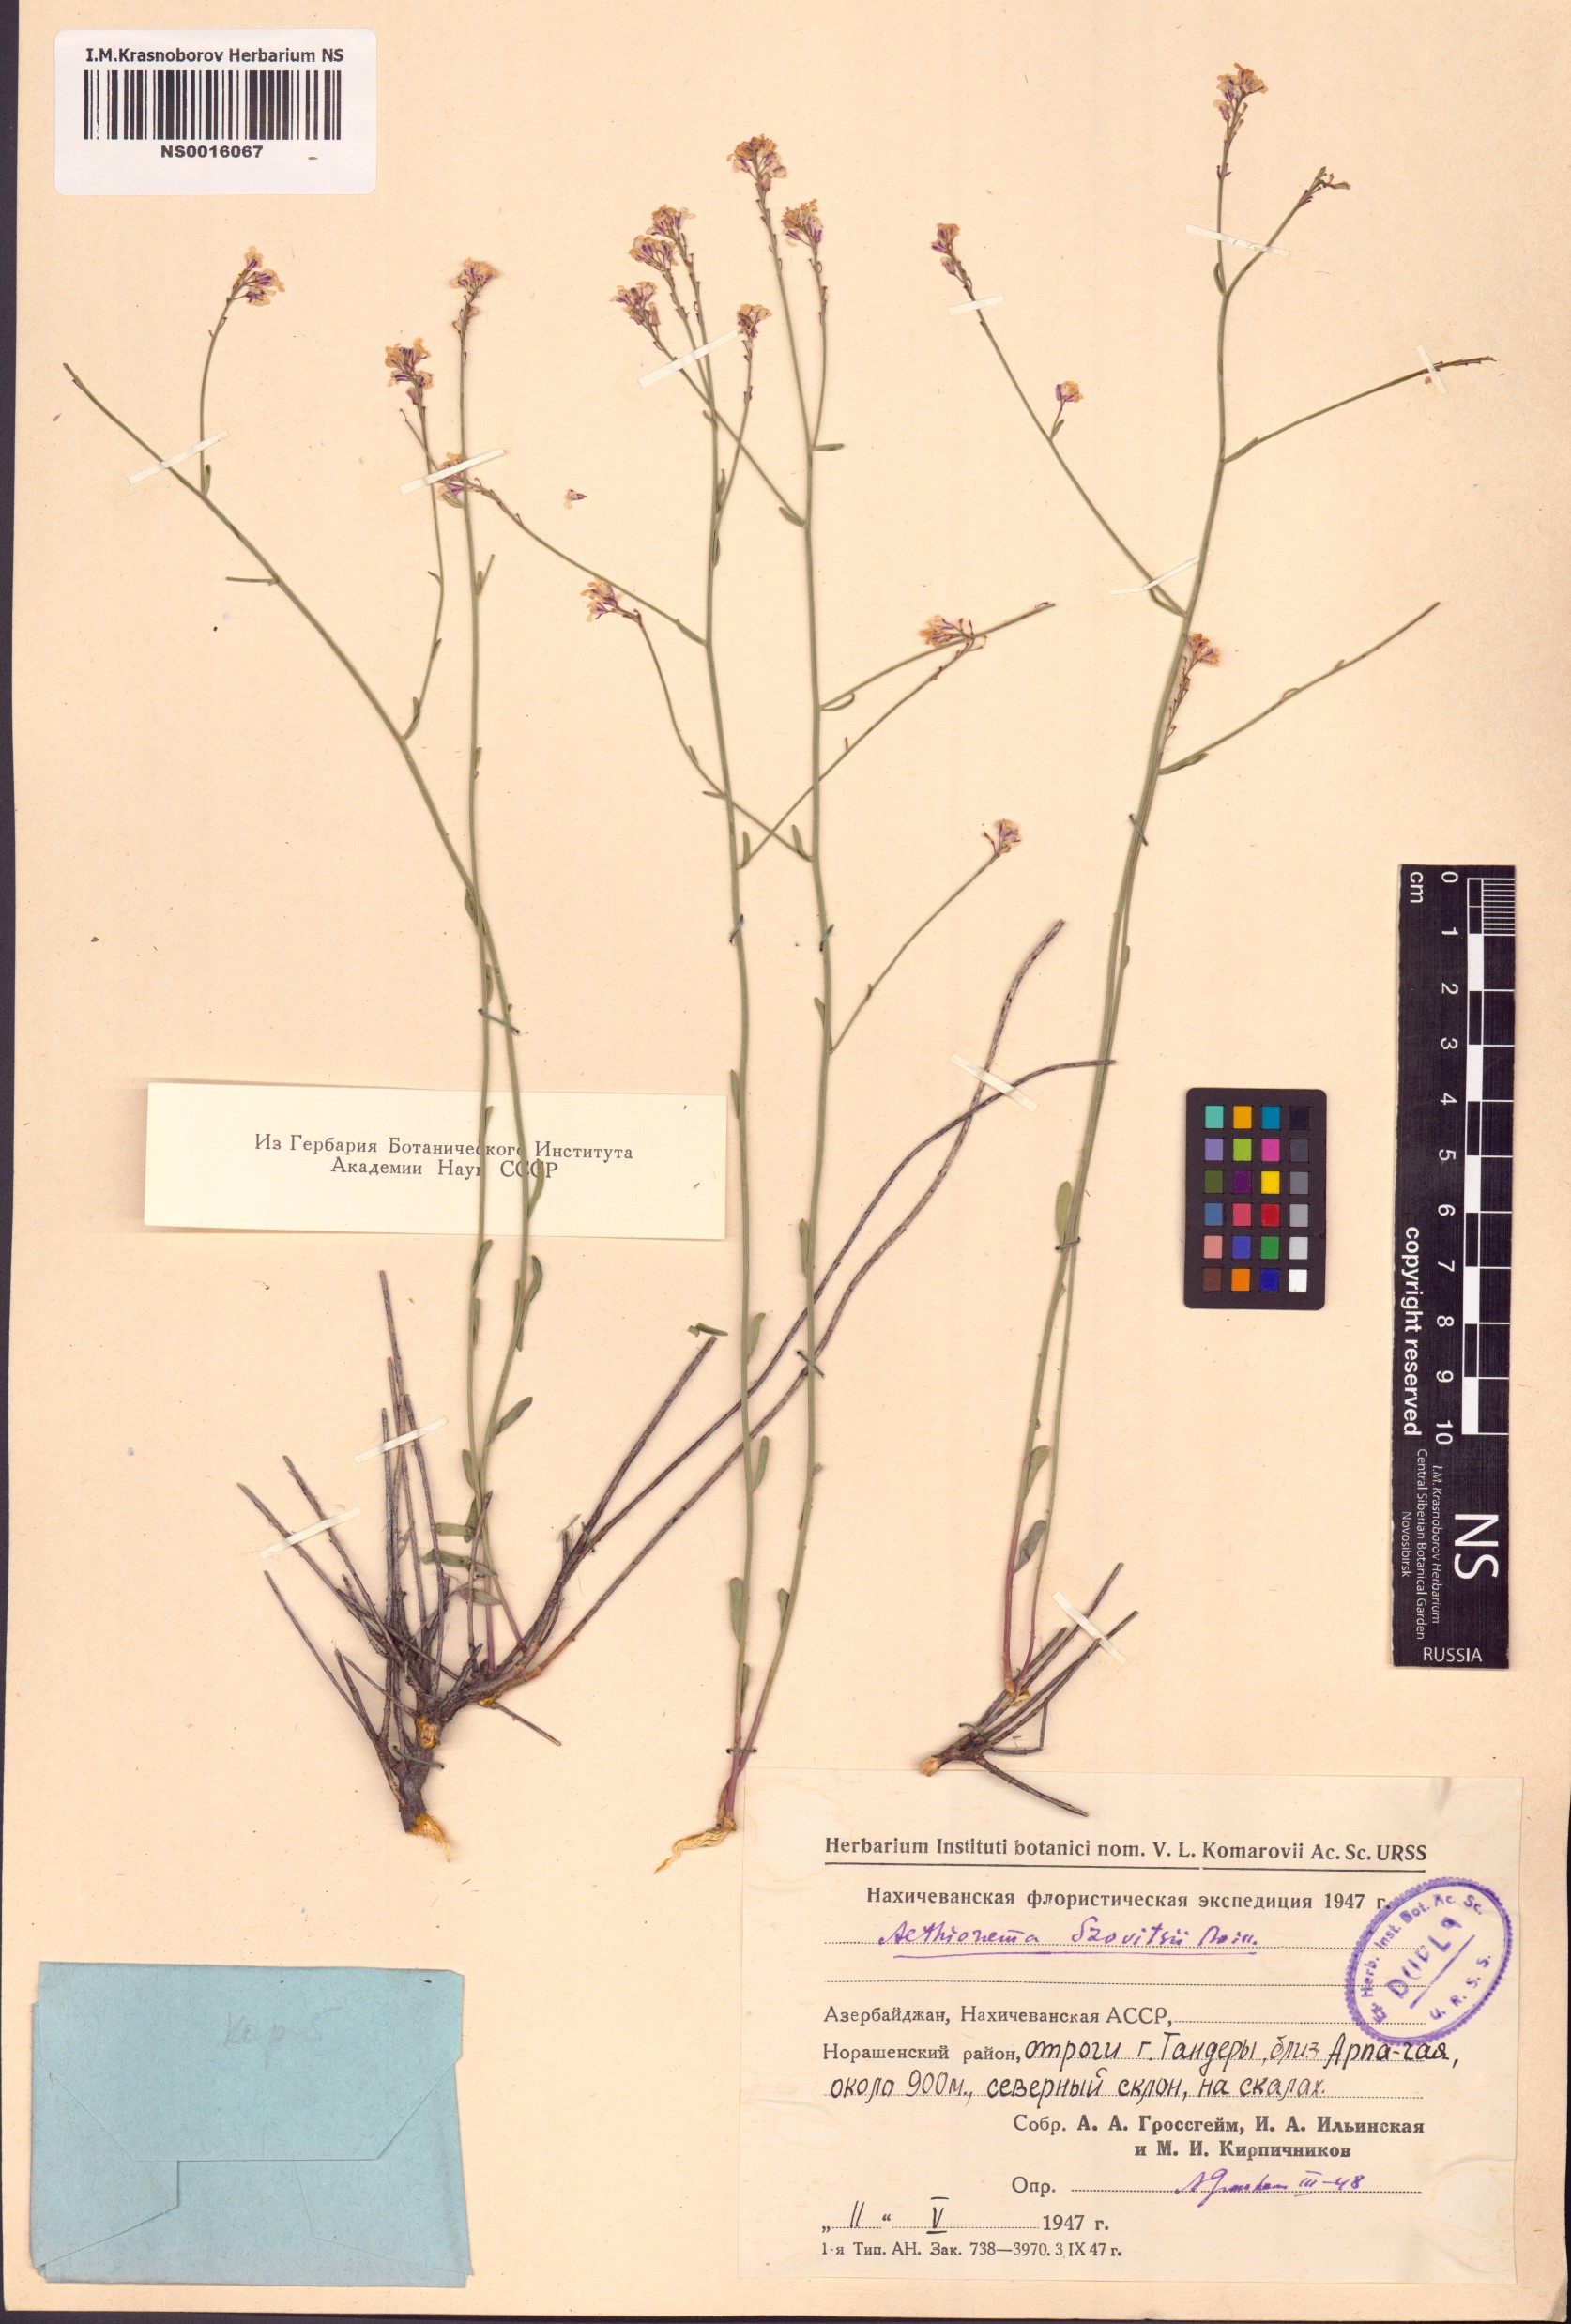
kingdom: Plantae
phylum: Tracheophyta
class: Magnoliopsida
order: Brassicales
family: Brassicaceae
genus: Aethionema
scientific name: Aethionema virgatum
